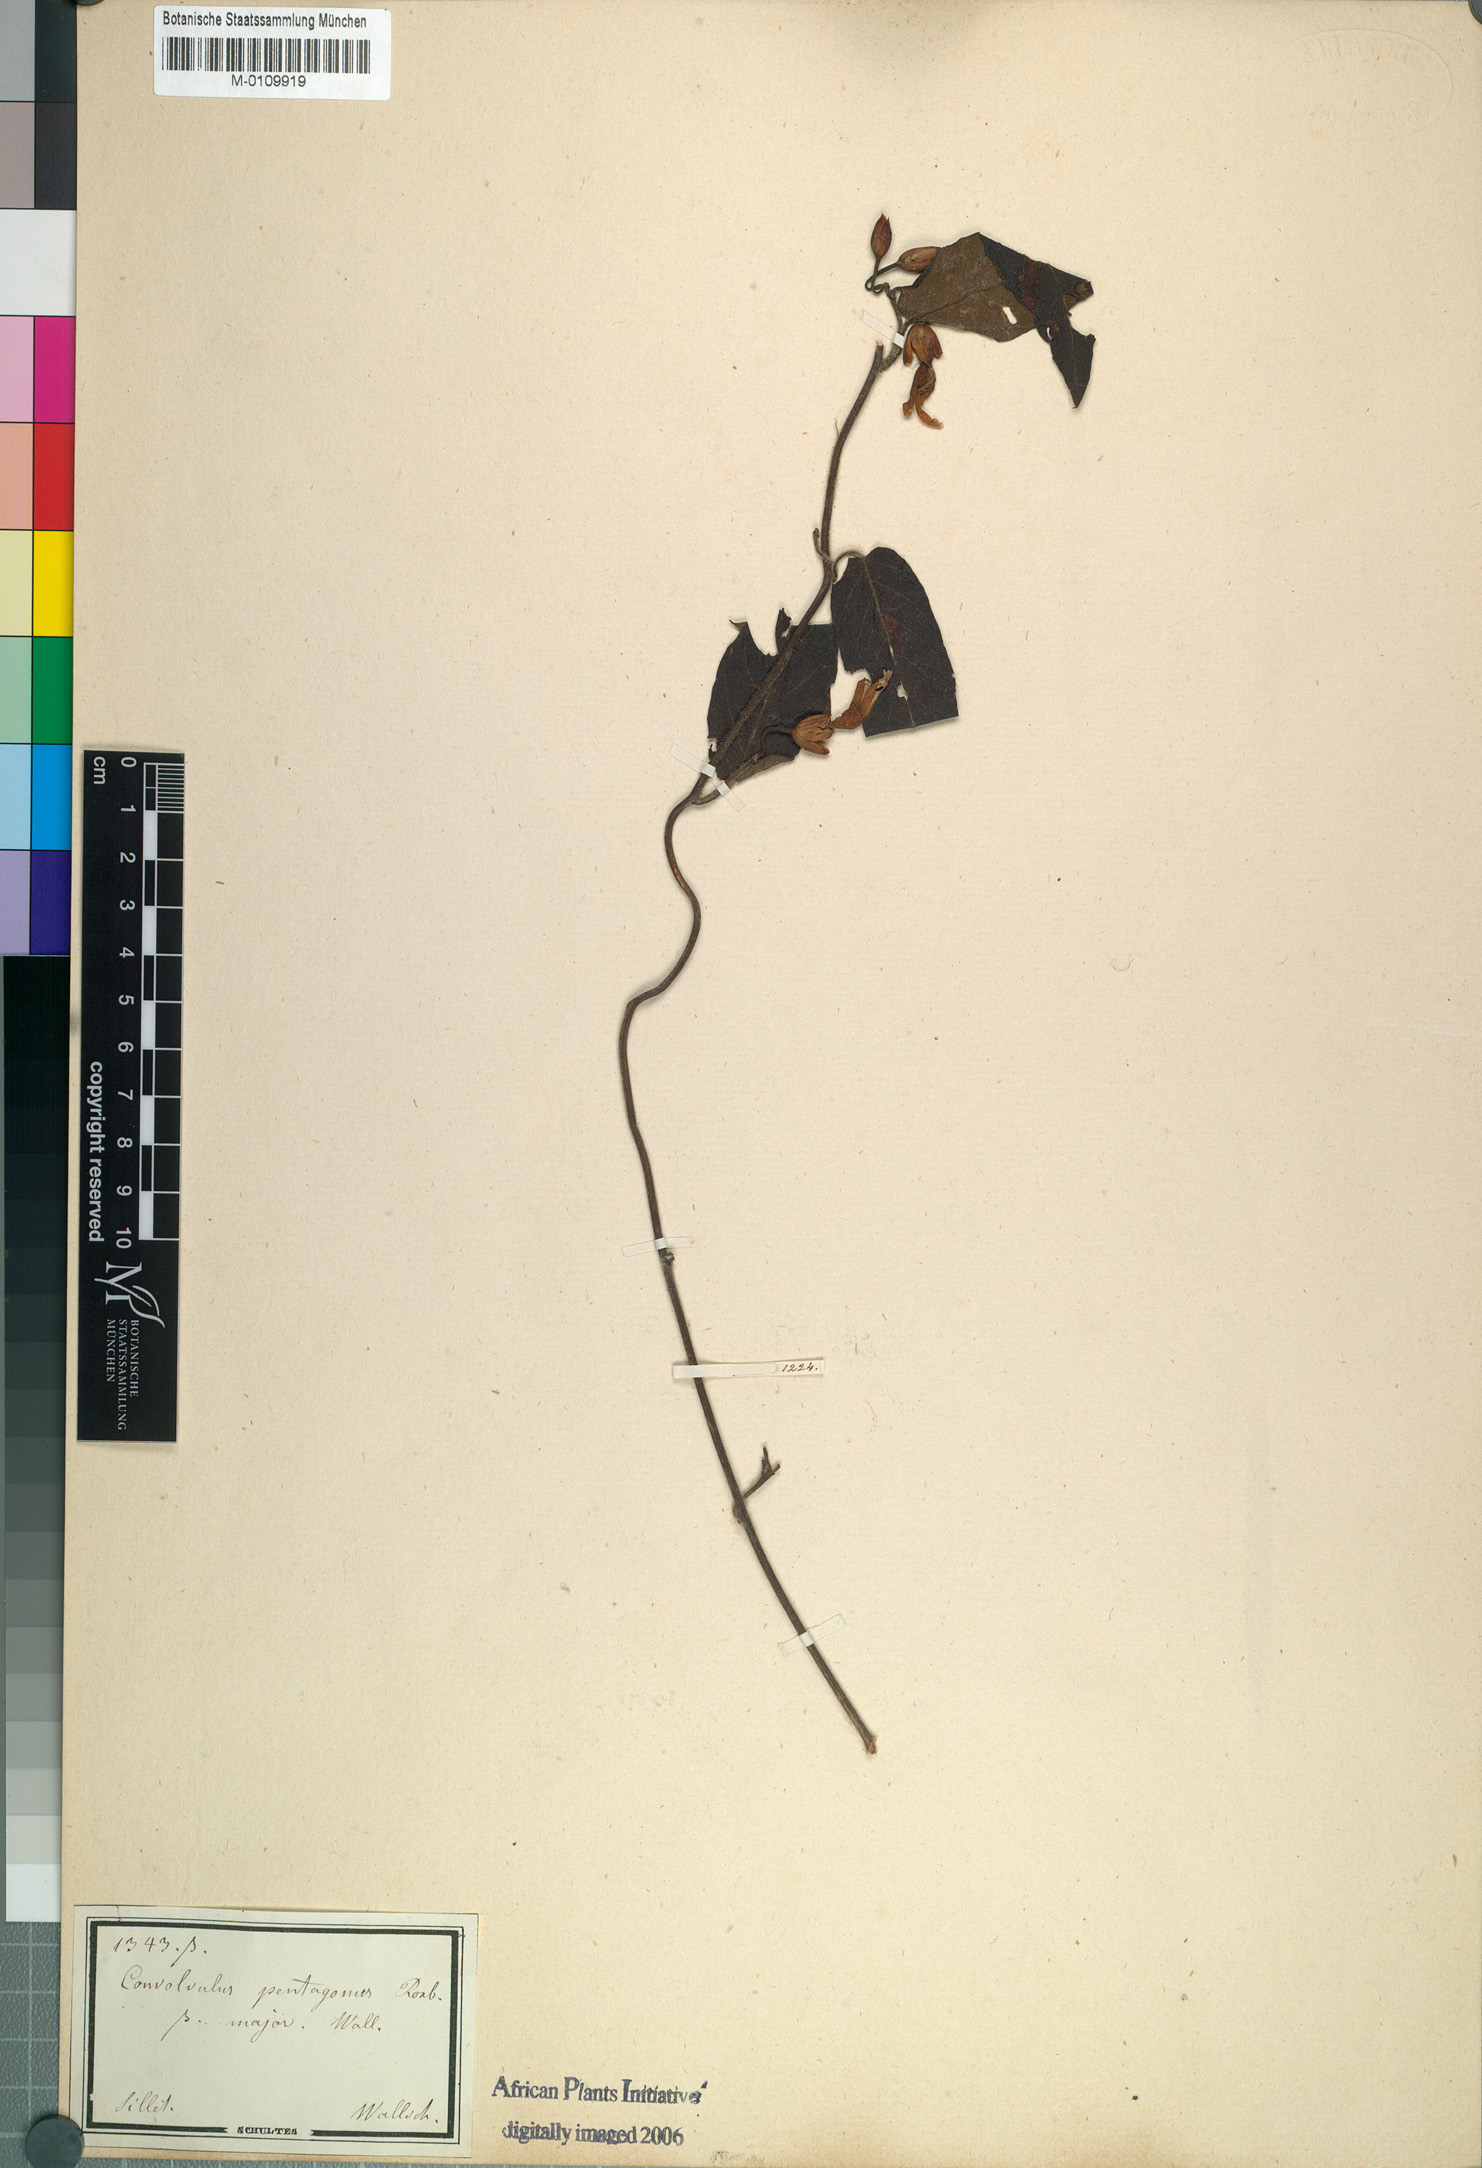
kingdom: Plantae
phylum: Tracheophyta
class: Magnoliopsida
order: Solanales
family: Convolvulaceae
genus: Camonea
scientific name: Camonea pilosa
